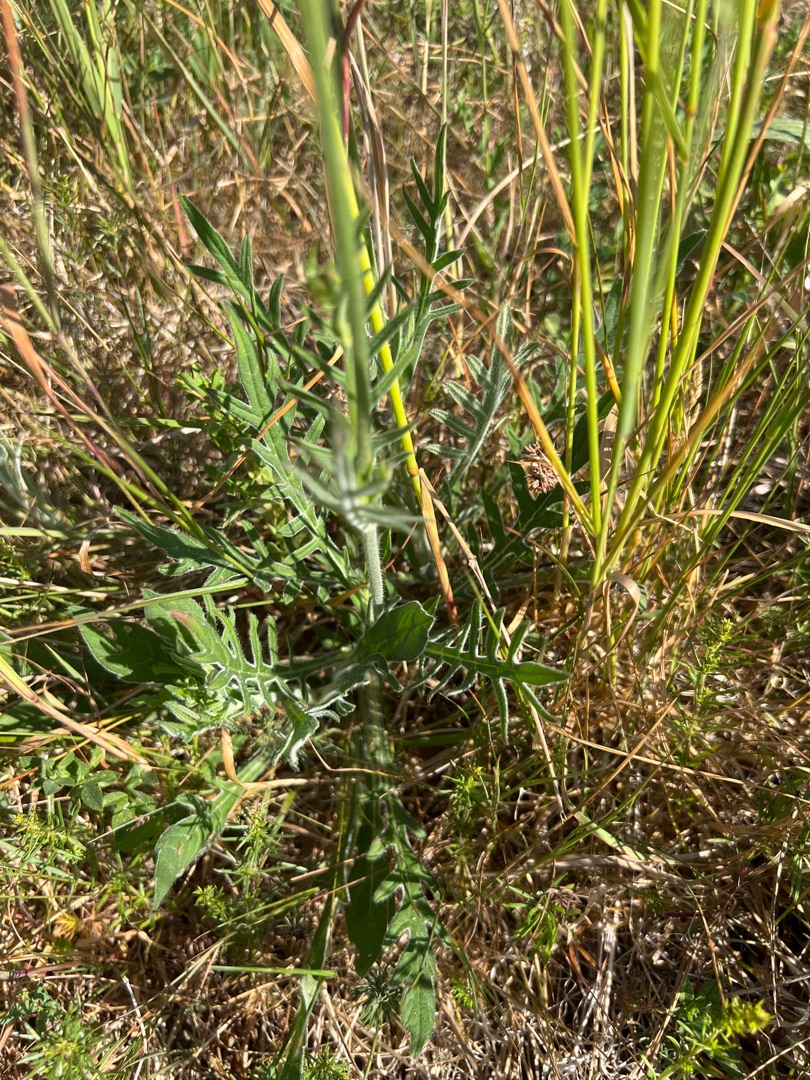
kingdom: Plantae
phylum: Tracheophyta
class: Magnoliopsida
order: Dipsacales
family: Caprifoliaceae
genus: Knautia
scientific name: Knautia arvensis
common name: Blåhat
